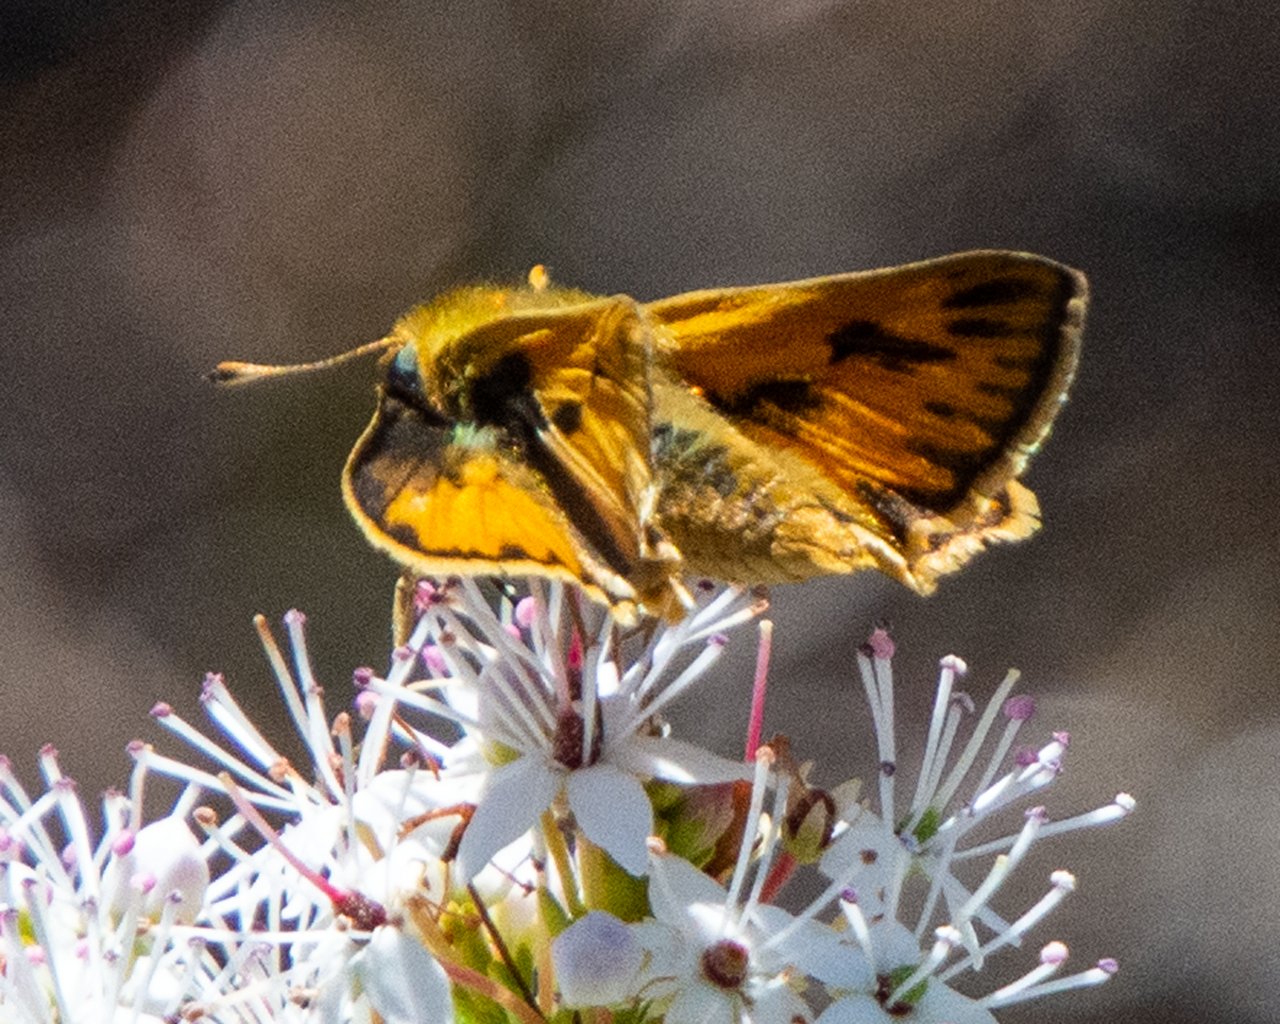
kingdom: Animalia
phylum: Arthropoda
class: Insecta
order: Lepidoptera
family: Hesperiidae
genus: Hylephila
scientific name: Hylephila phyleus
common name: Fiery Skipper
